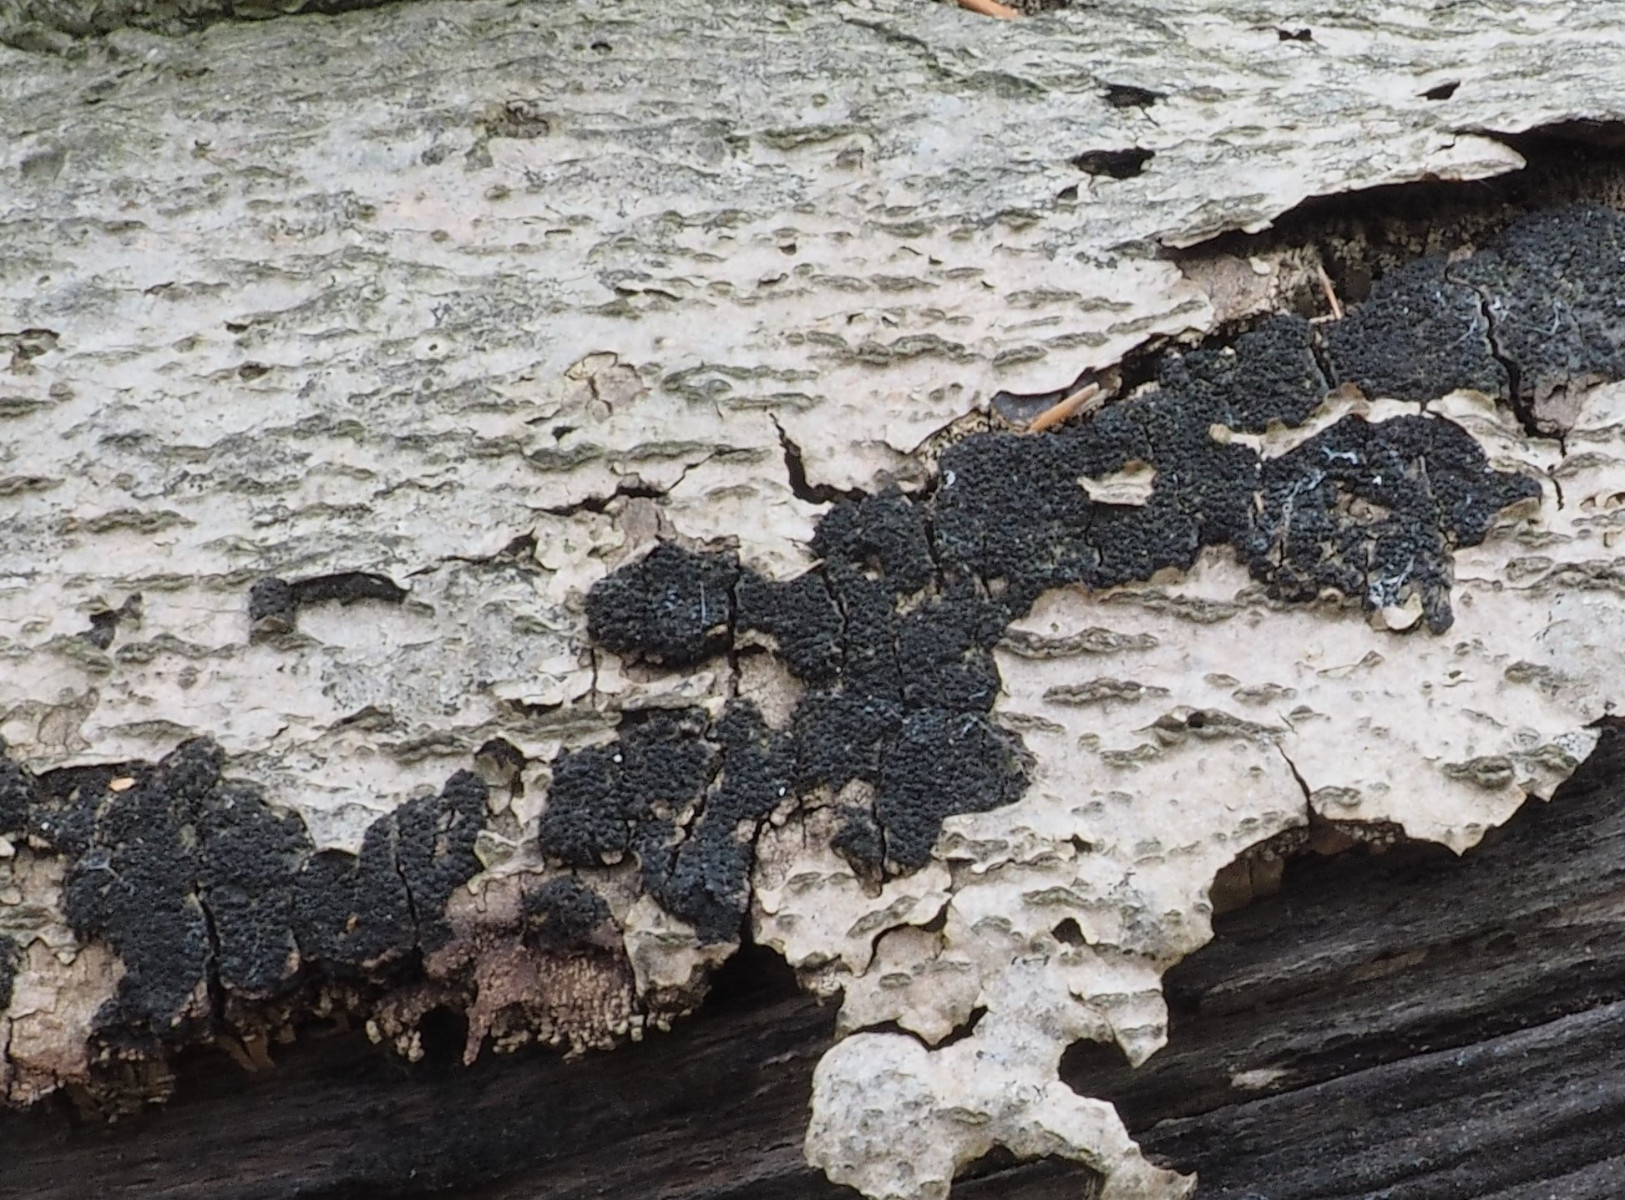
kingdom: Fungi
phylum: Ascomycota
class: Sordariomycetes
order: Xylariales
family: Diatrypaceae
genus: Eutypa
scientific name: Eutypa spinosa
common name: grov kulskorpe
